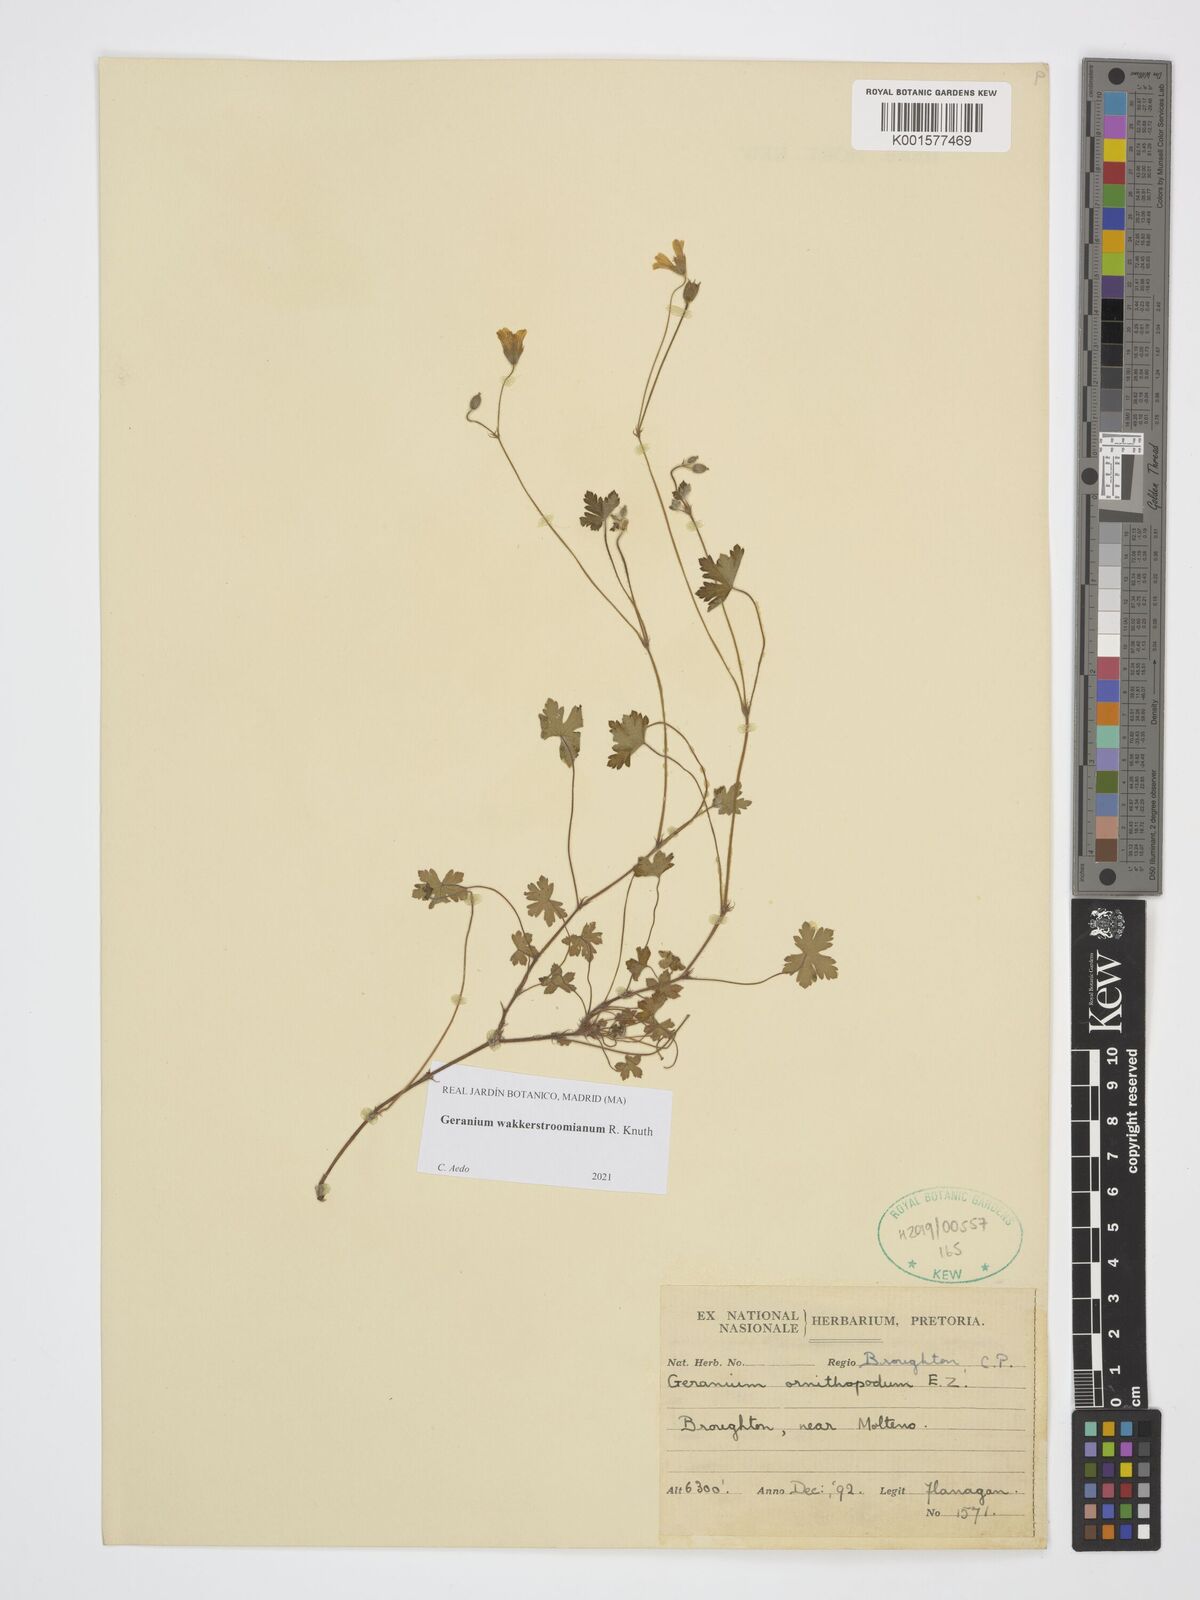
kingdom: Plantae
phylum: Tracheophyta
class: Magnoliopsida
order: Geraniales
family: Geraniaceae
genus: Geranium
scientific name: Geranium wakkerstroomianum
